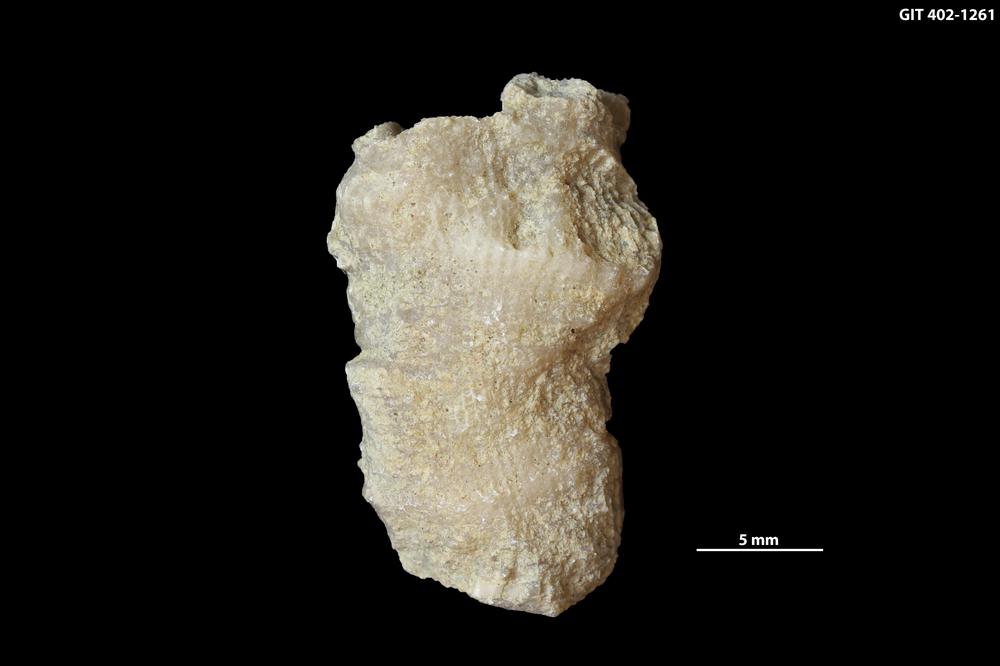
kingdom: Animalia
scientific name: Animalia
